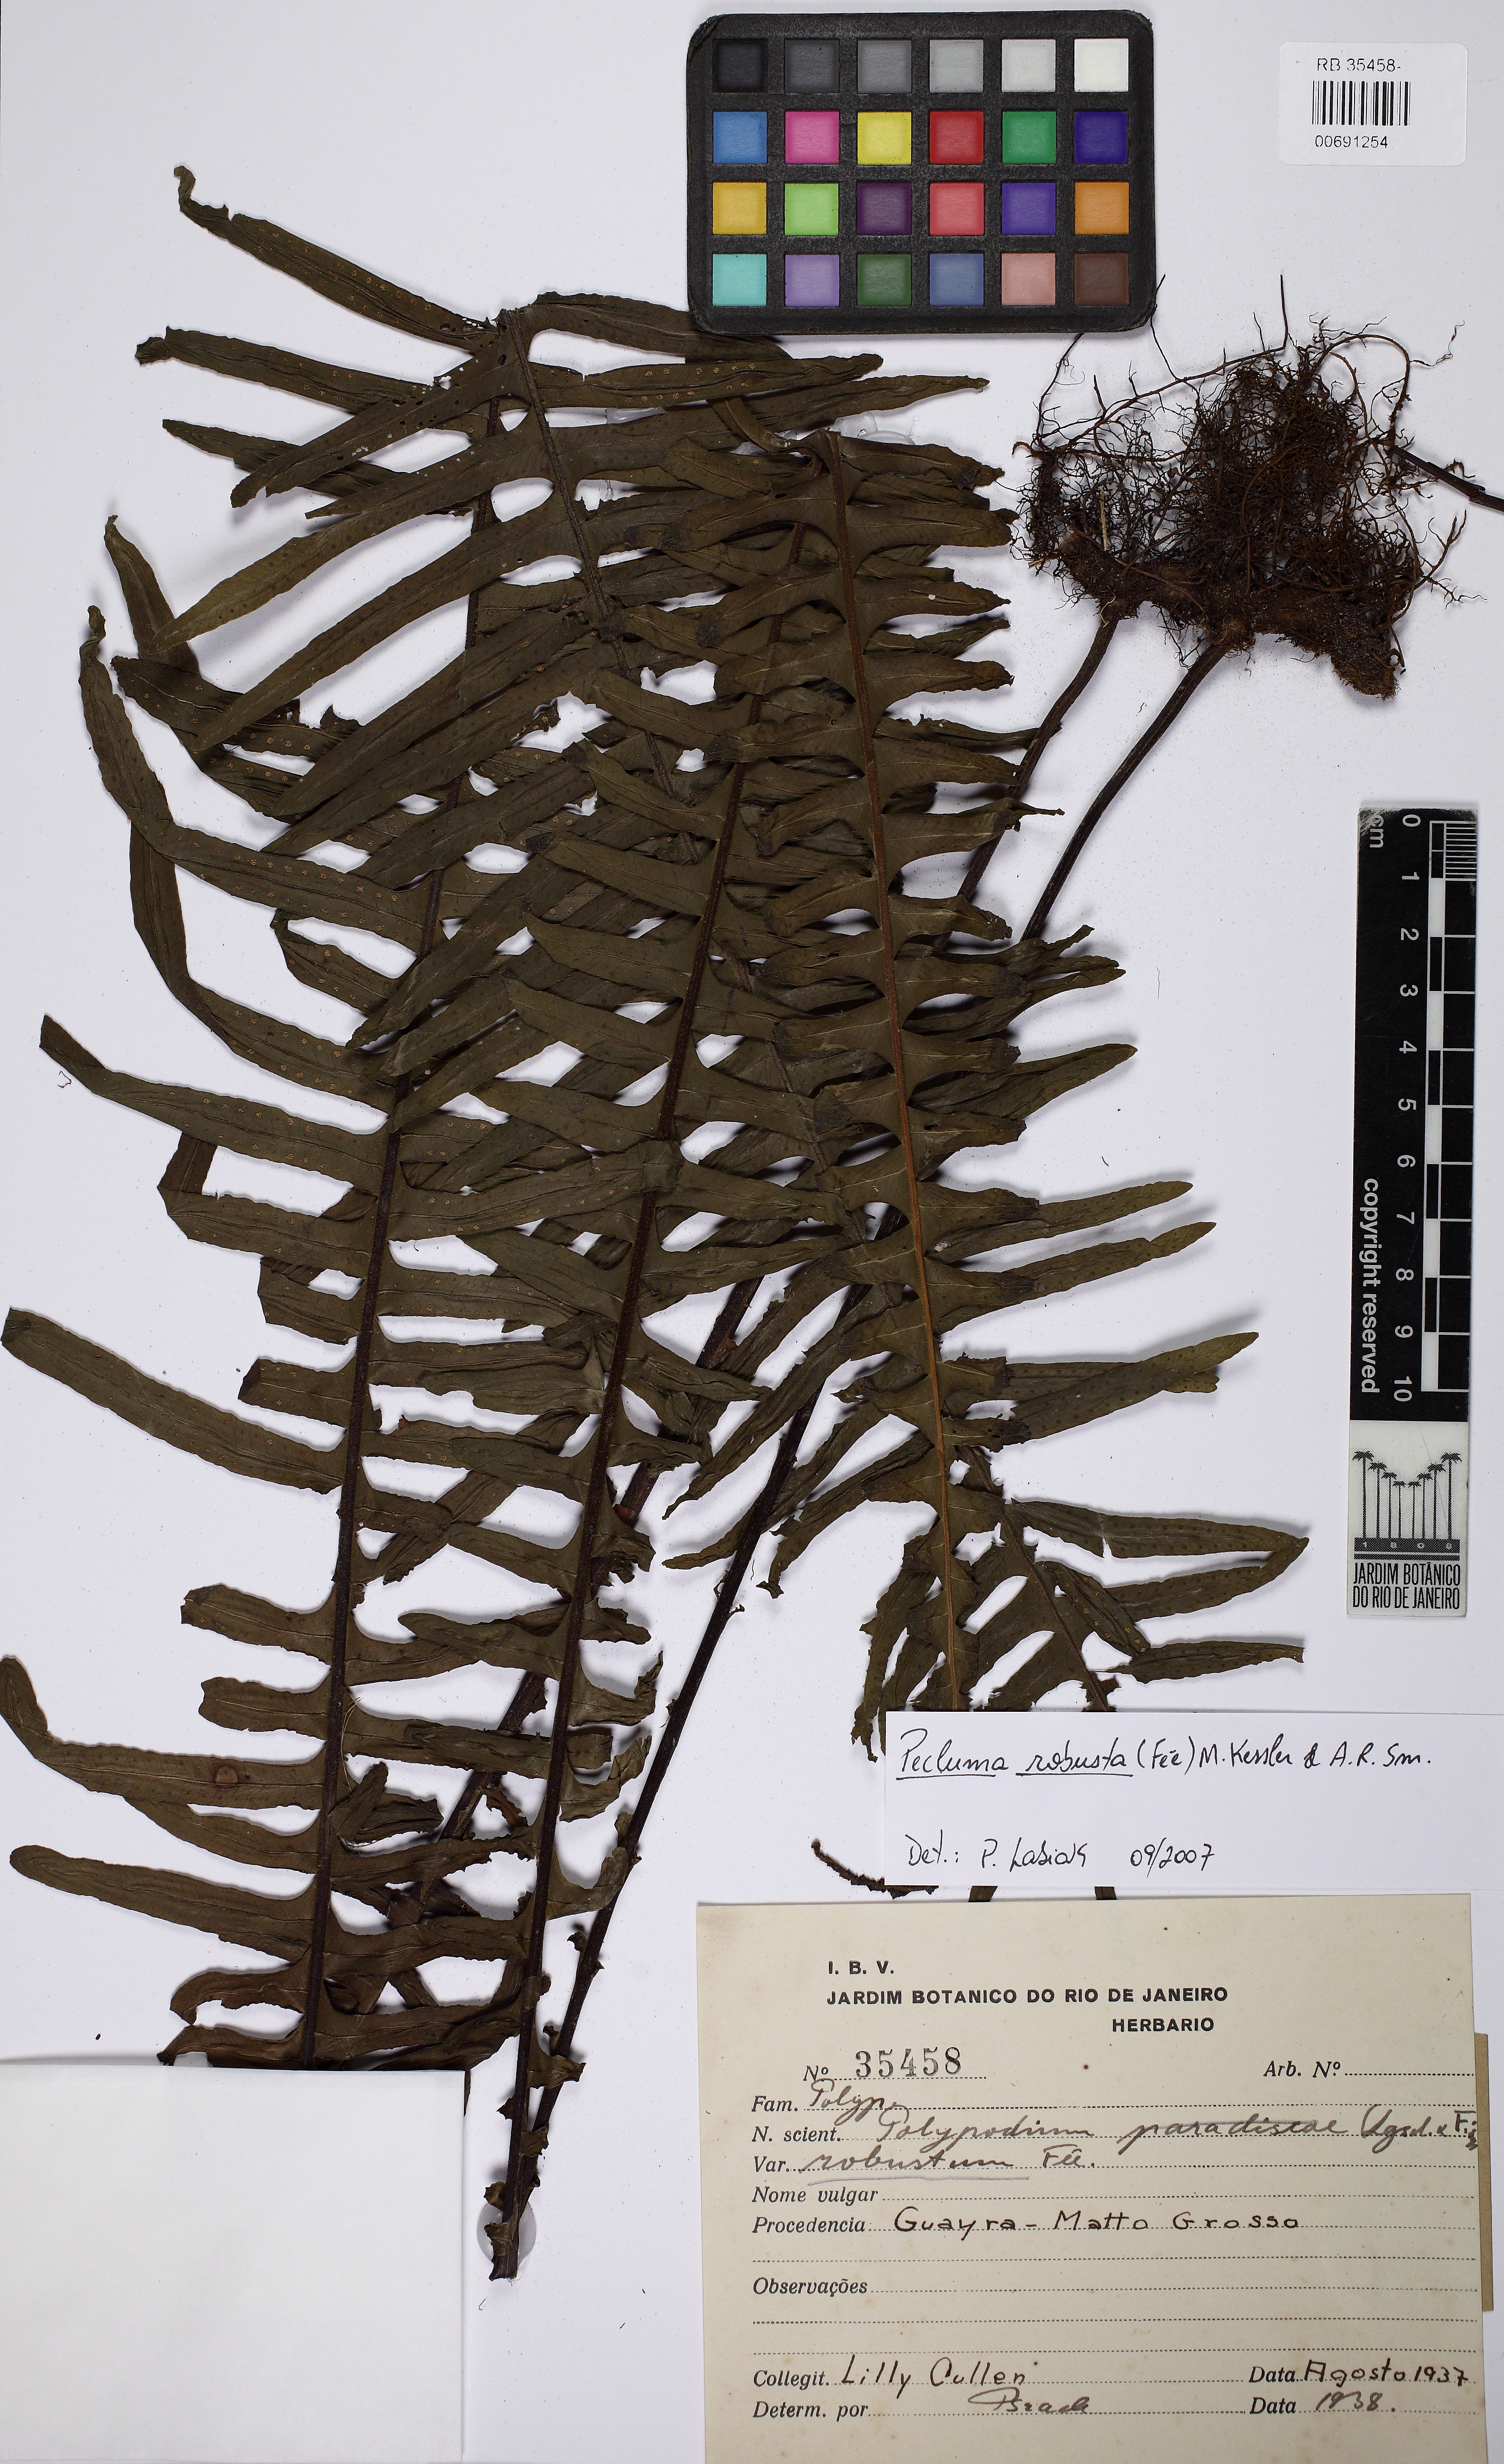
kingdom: Plantae
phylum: Tracheophyta
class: Polypodiopsida
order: Polypodiales
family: Polypodiaceae
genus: Pecluma
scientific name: Pecluma robusta
